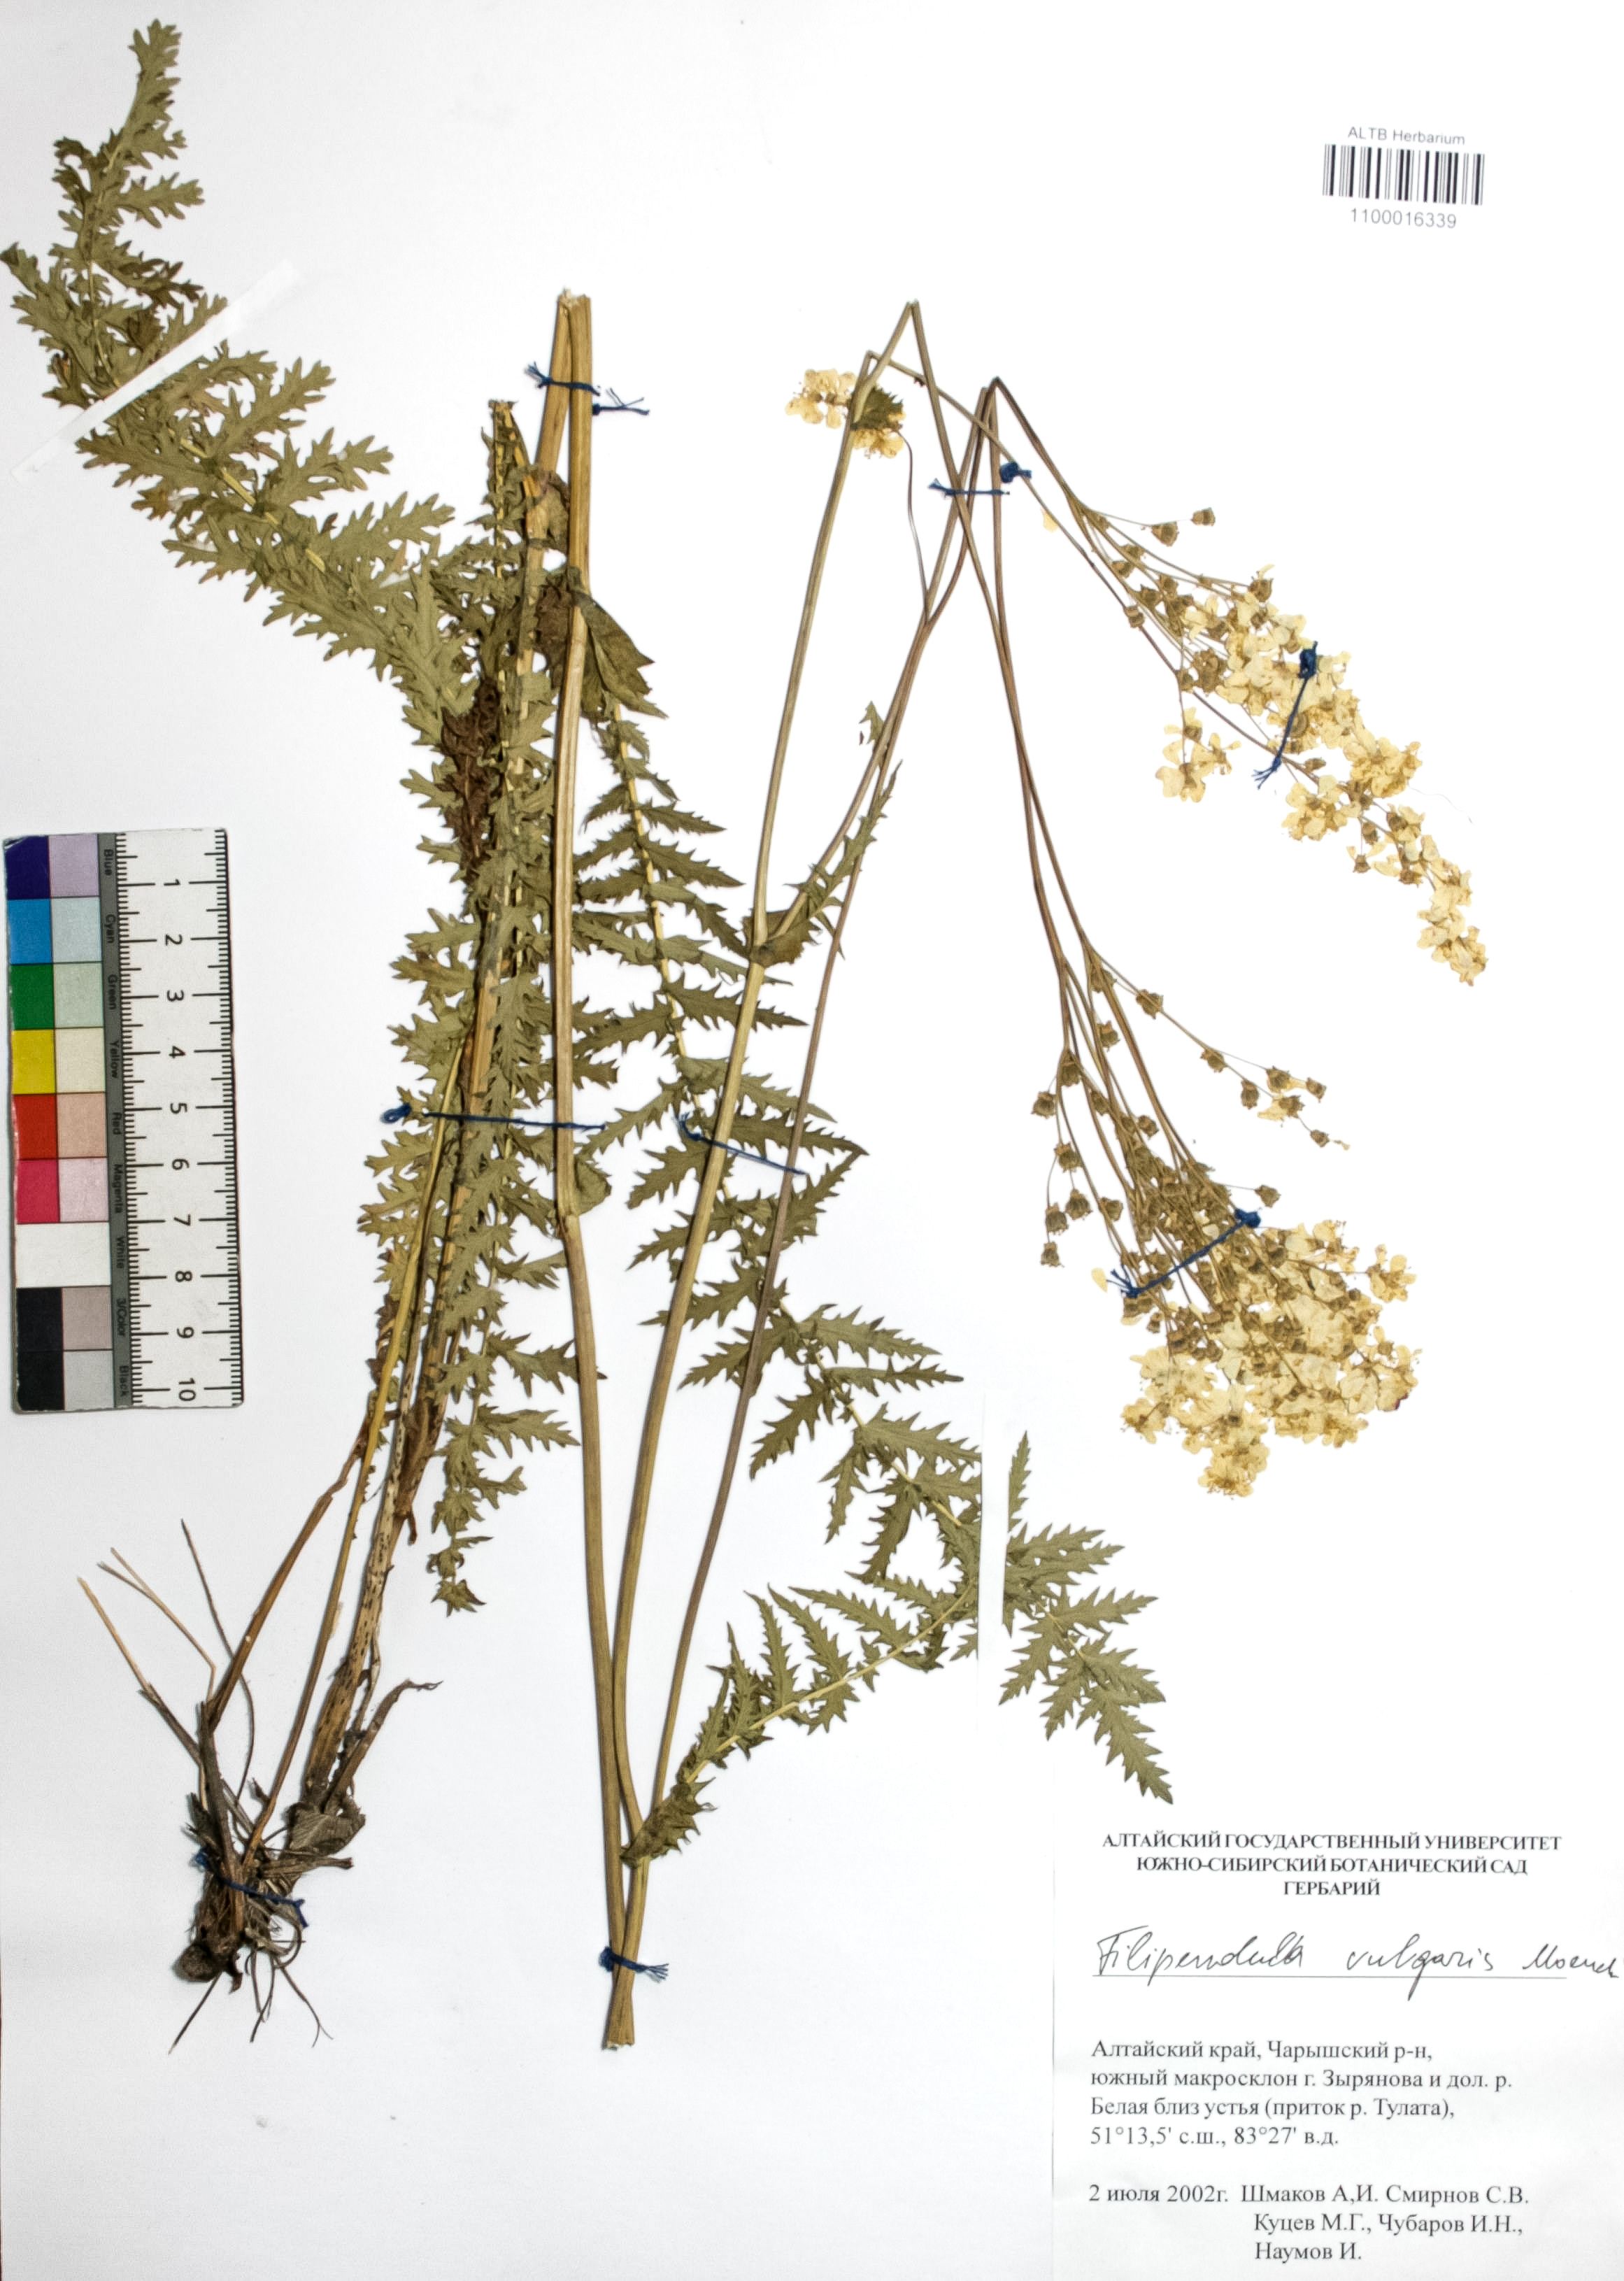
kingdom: Plantae
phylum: Tracheophyta
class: Magnoliopsida
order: Rosales
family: Rosaceae
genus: Filipendula
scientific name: Filipendula vulgaris
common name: Dropwort
